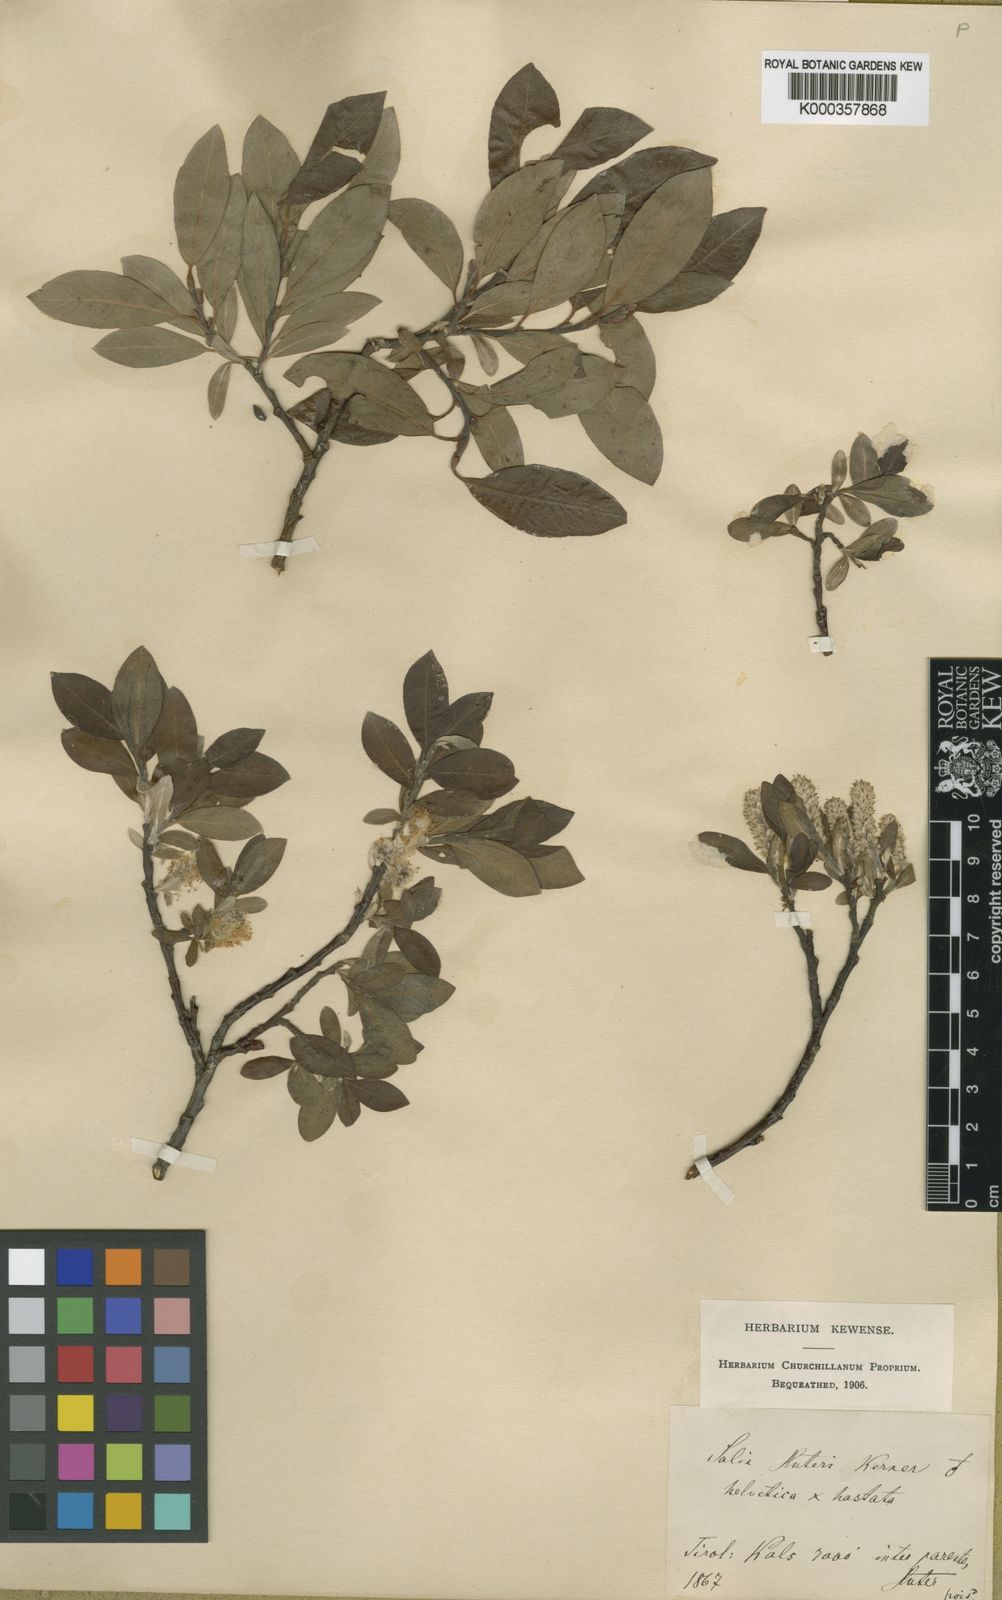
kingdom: Plantae
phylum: Tracheophyta
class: Magnoliopsida
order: Malpighiales
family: Salicaceae
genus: Salix
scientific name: Salix
